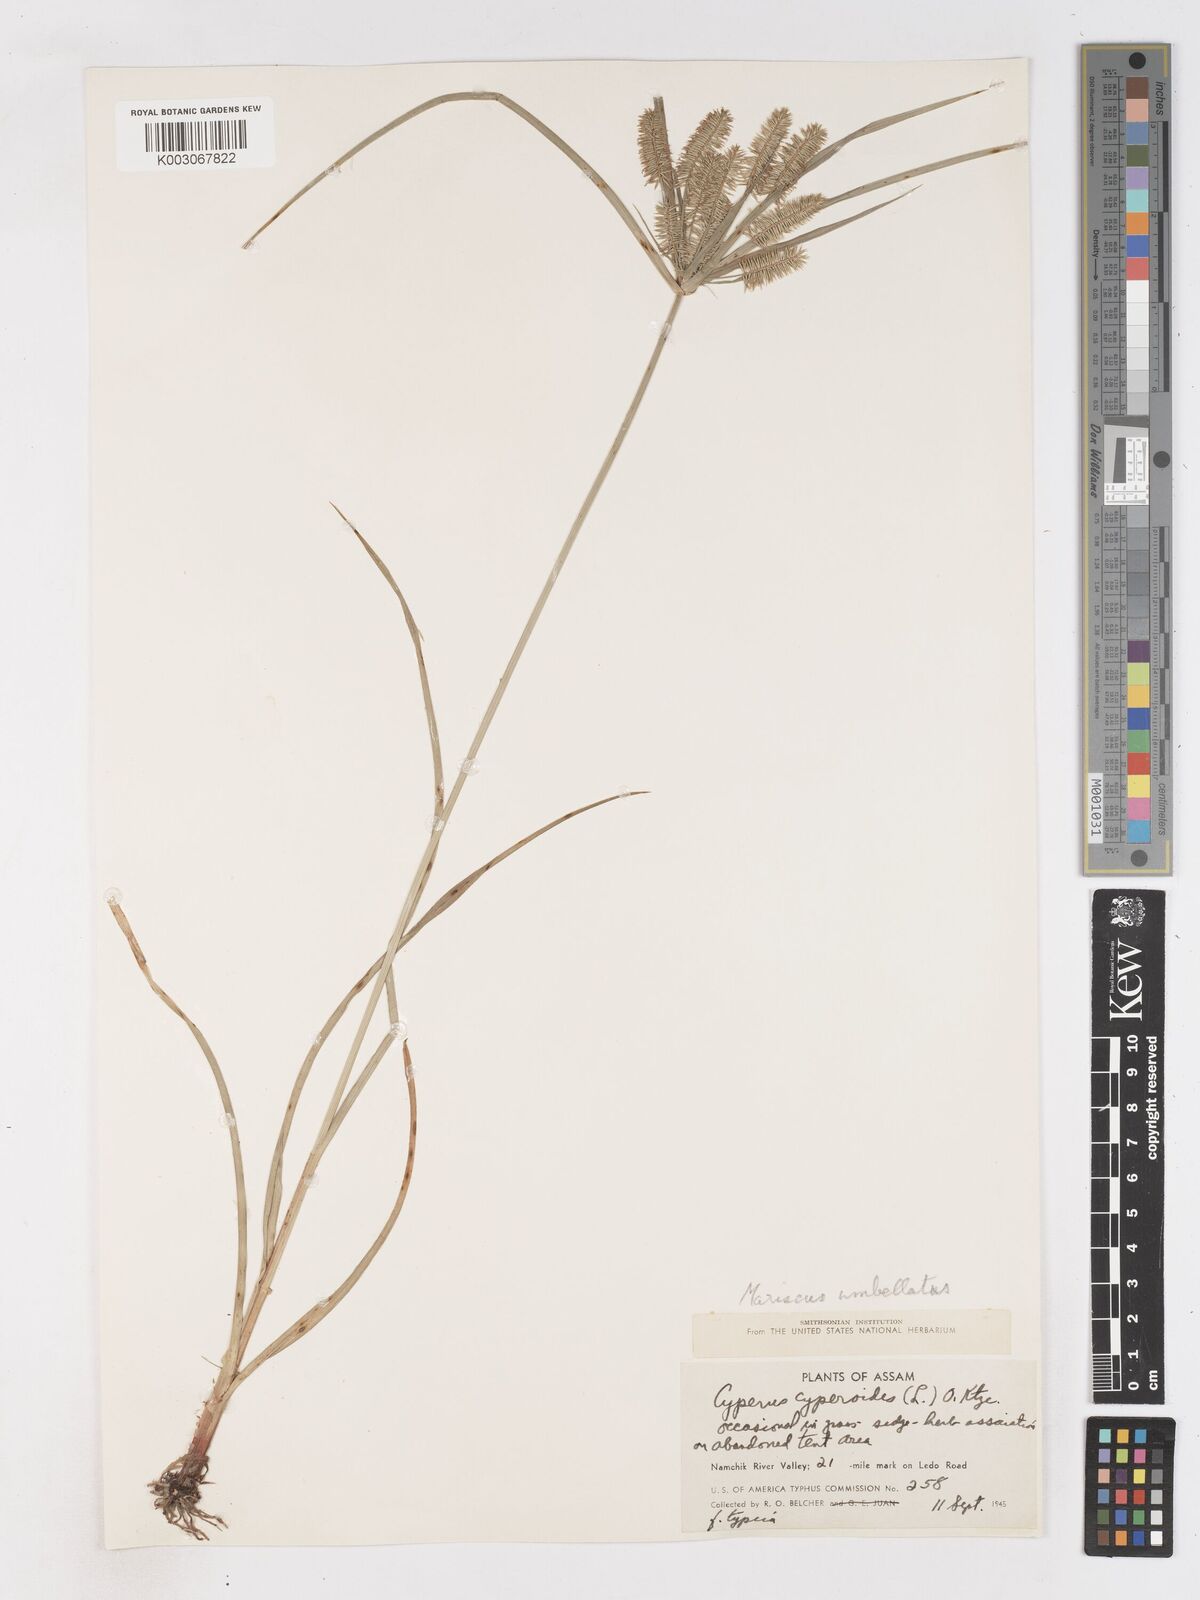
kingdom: Plantae
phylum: Tracheophyta
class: Liliopsida
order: Poales
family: Cyperaceae
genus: Cyperus
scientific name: Cyperus cyperoides
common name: Pacific island flat sedge
